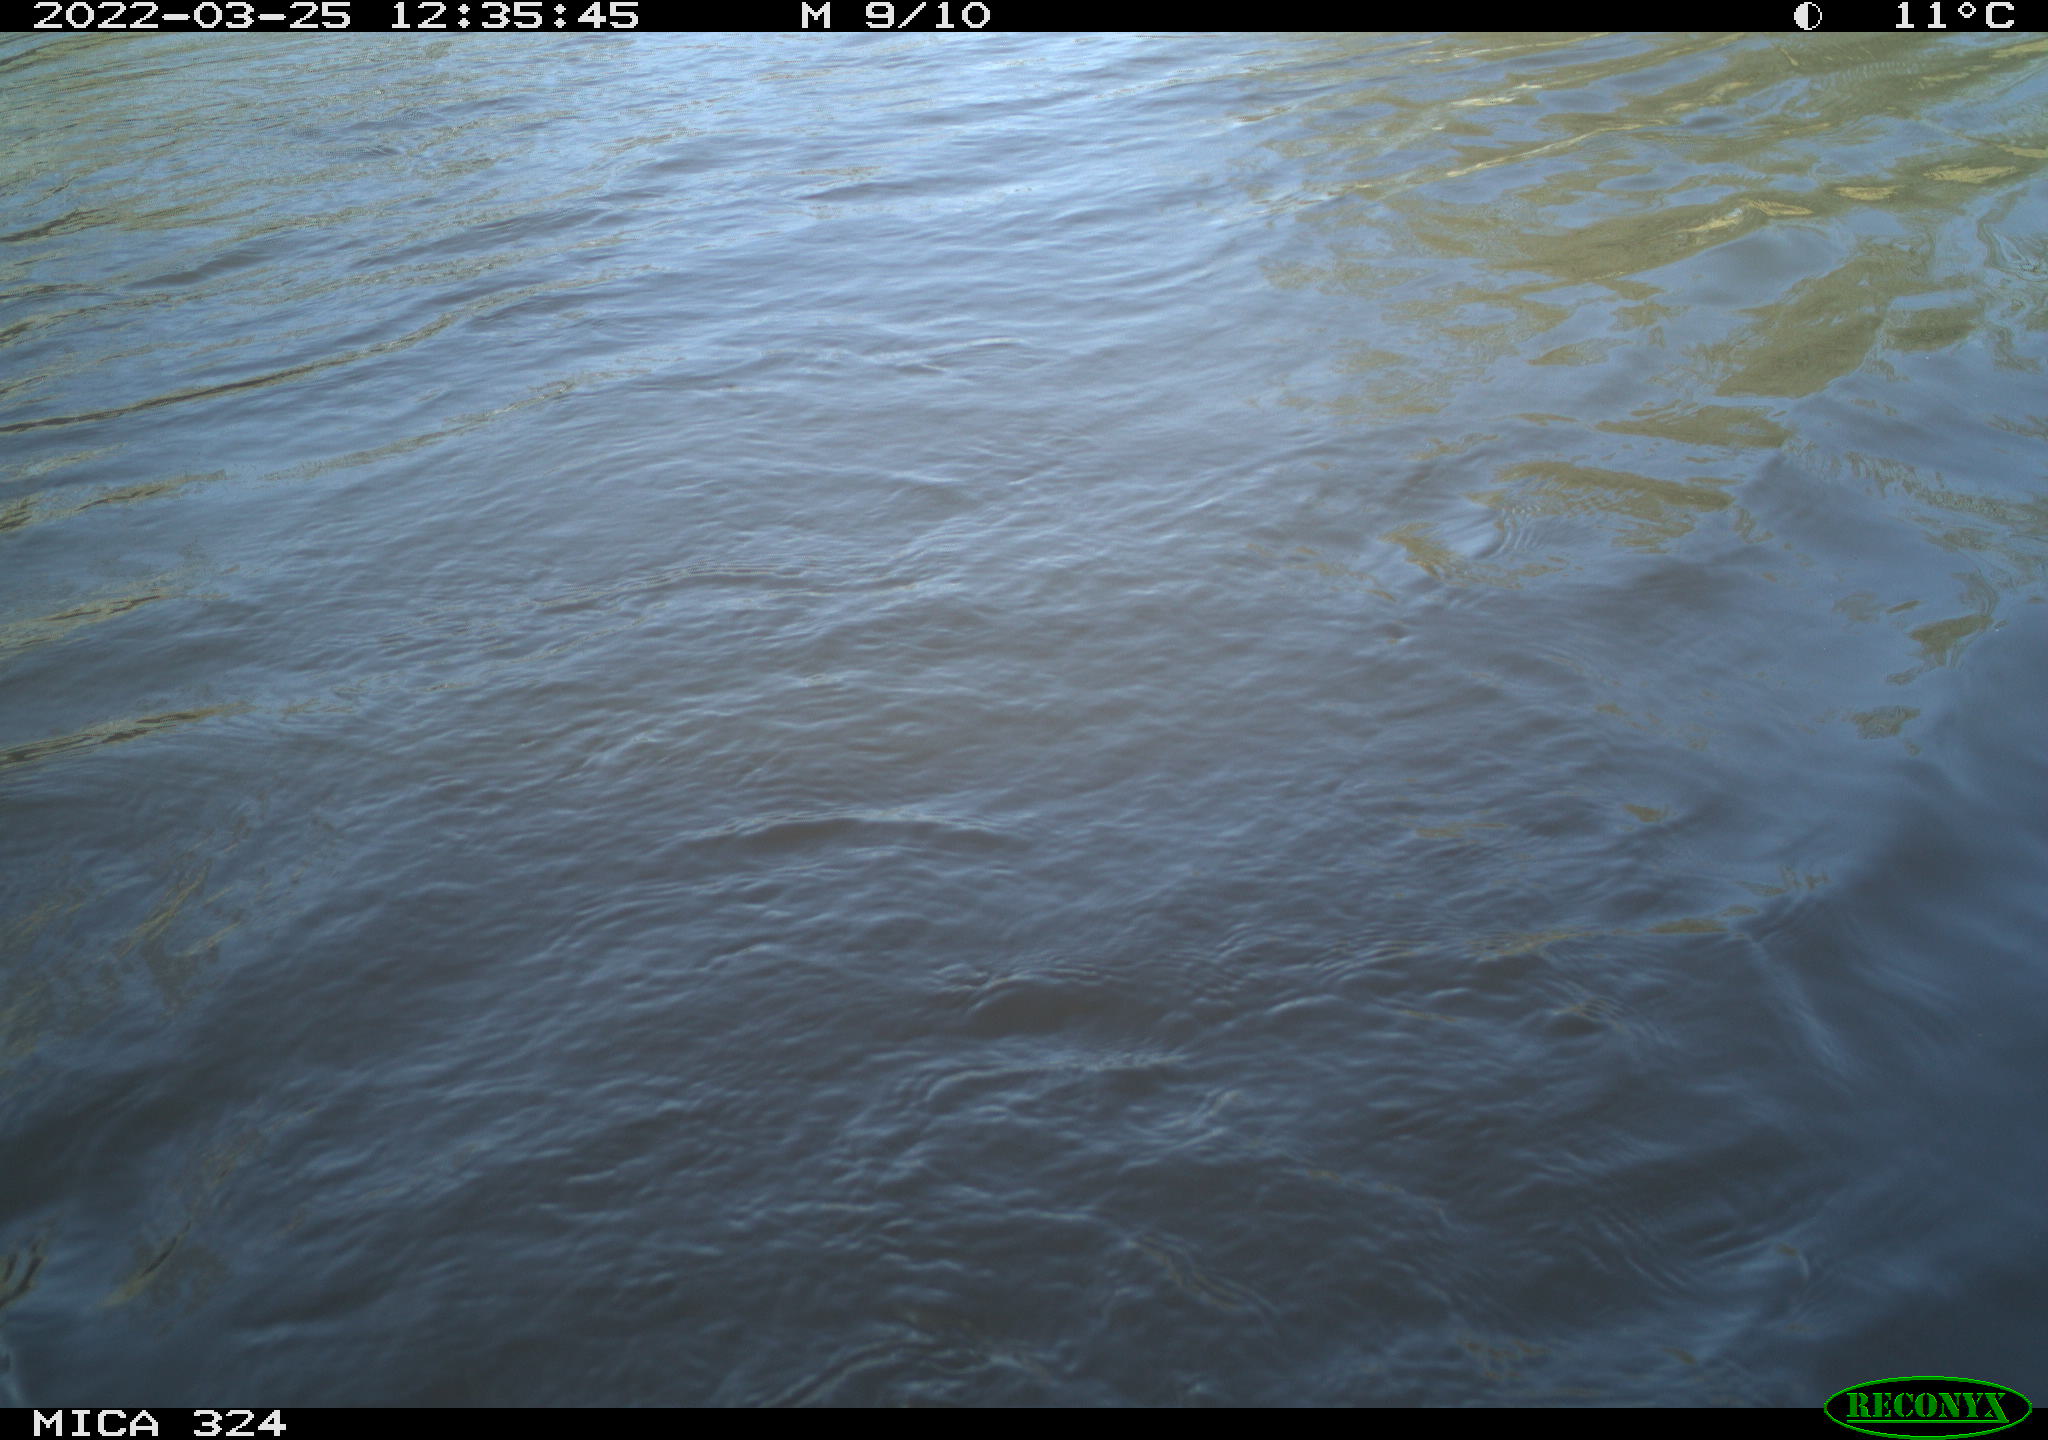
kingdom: Animalia
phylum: Chordata
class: Aves
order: Anseriformes
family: Anatidae
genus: Anas
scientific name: Anas platyrhynchos
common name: Mallard
